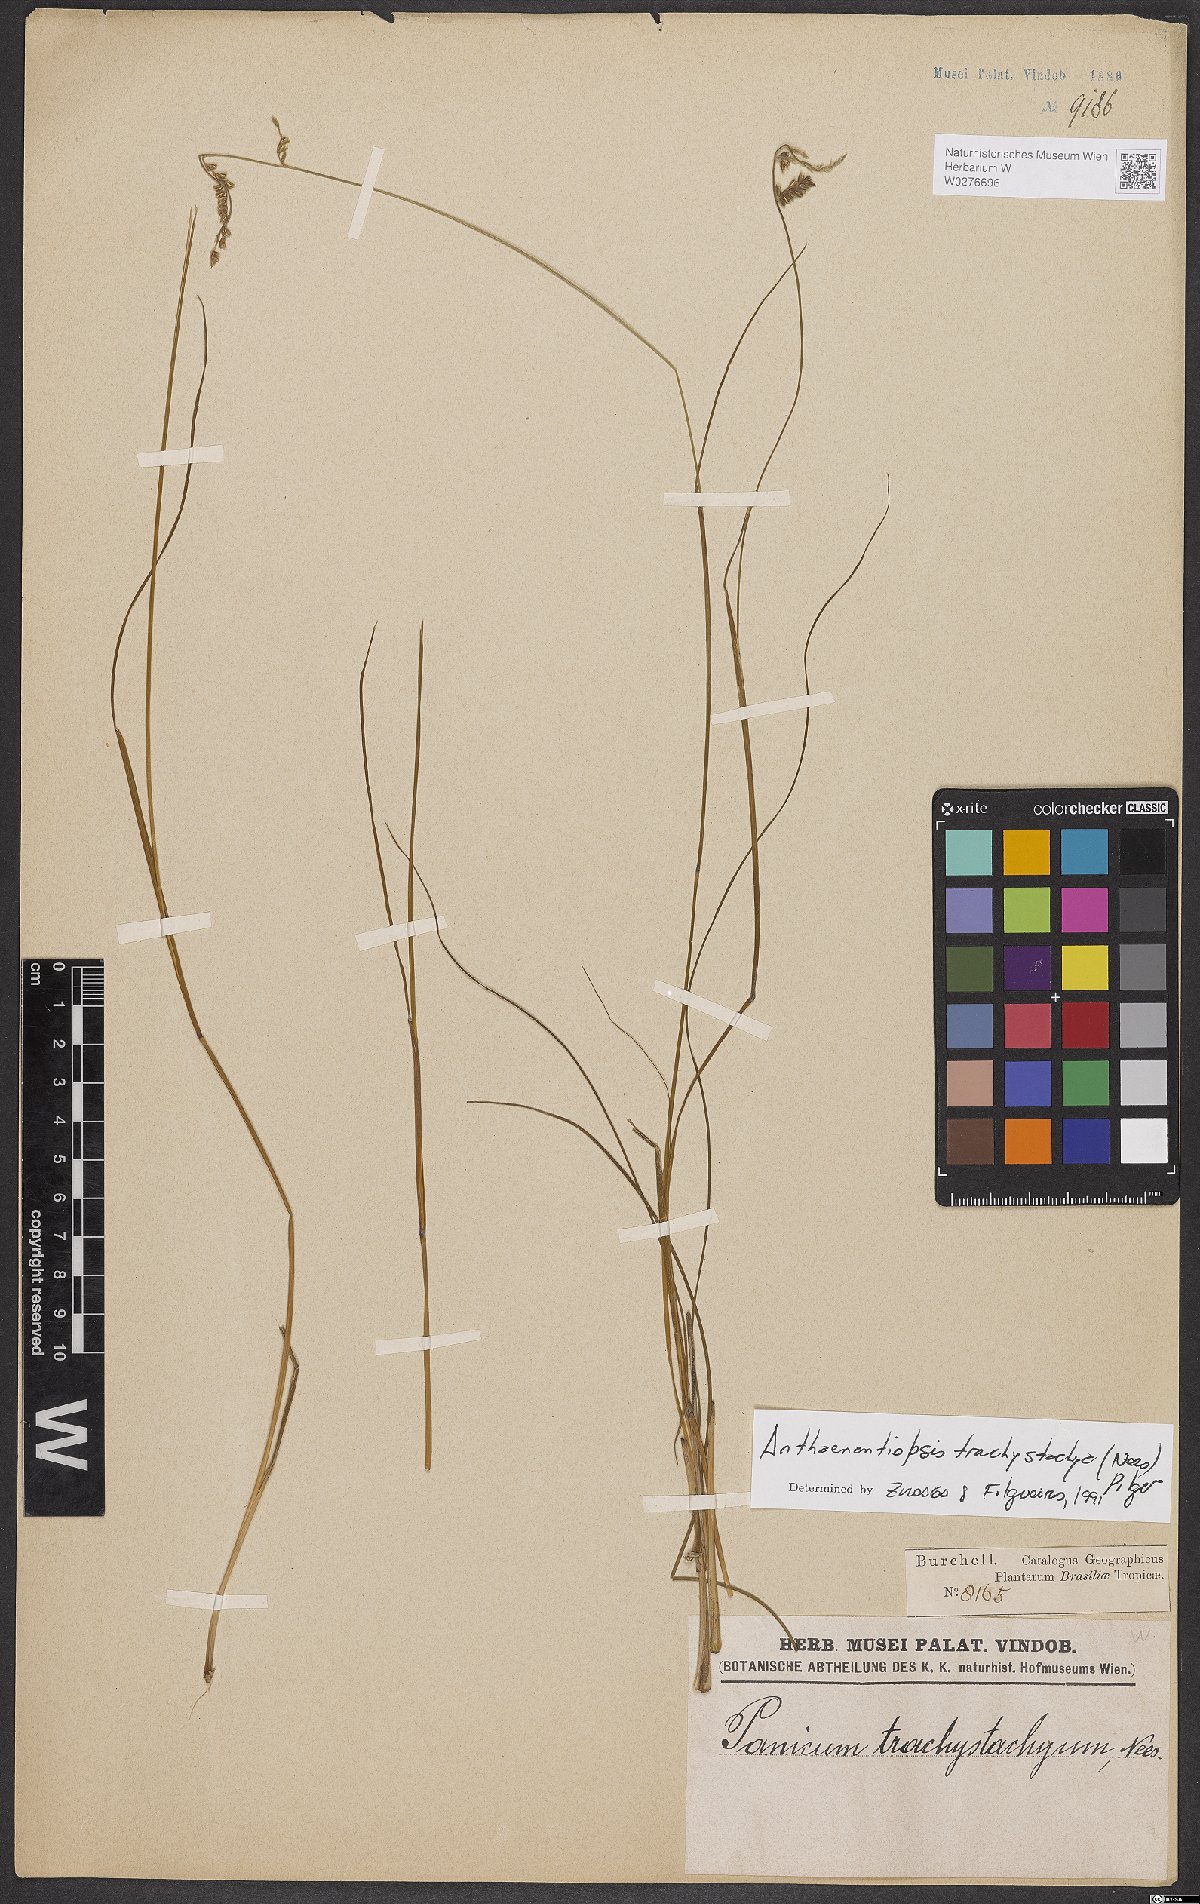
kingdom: Plantae
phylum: Tracheophyta
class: Liliopsida
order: Poales
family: Poaceae
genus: Anthaenantiopsis
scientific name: Anthaenantiopsis trachystachya
